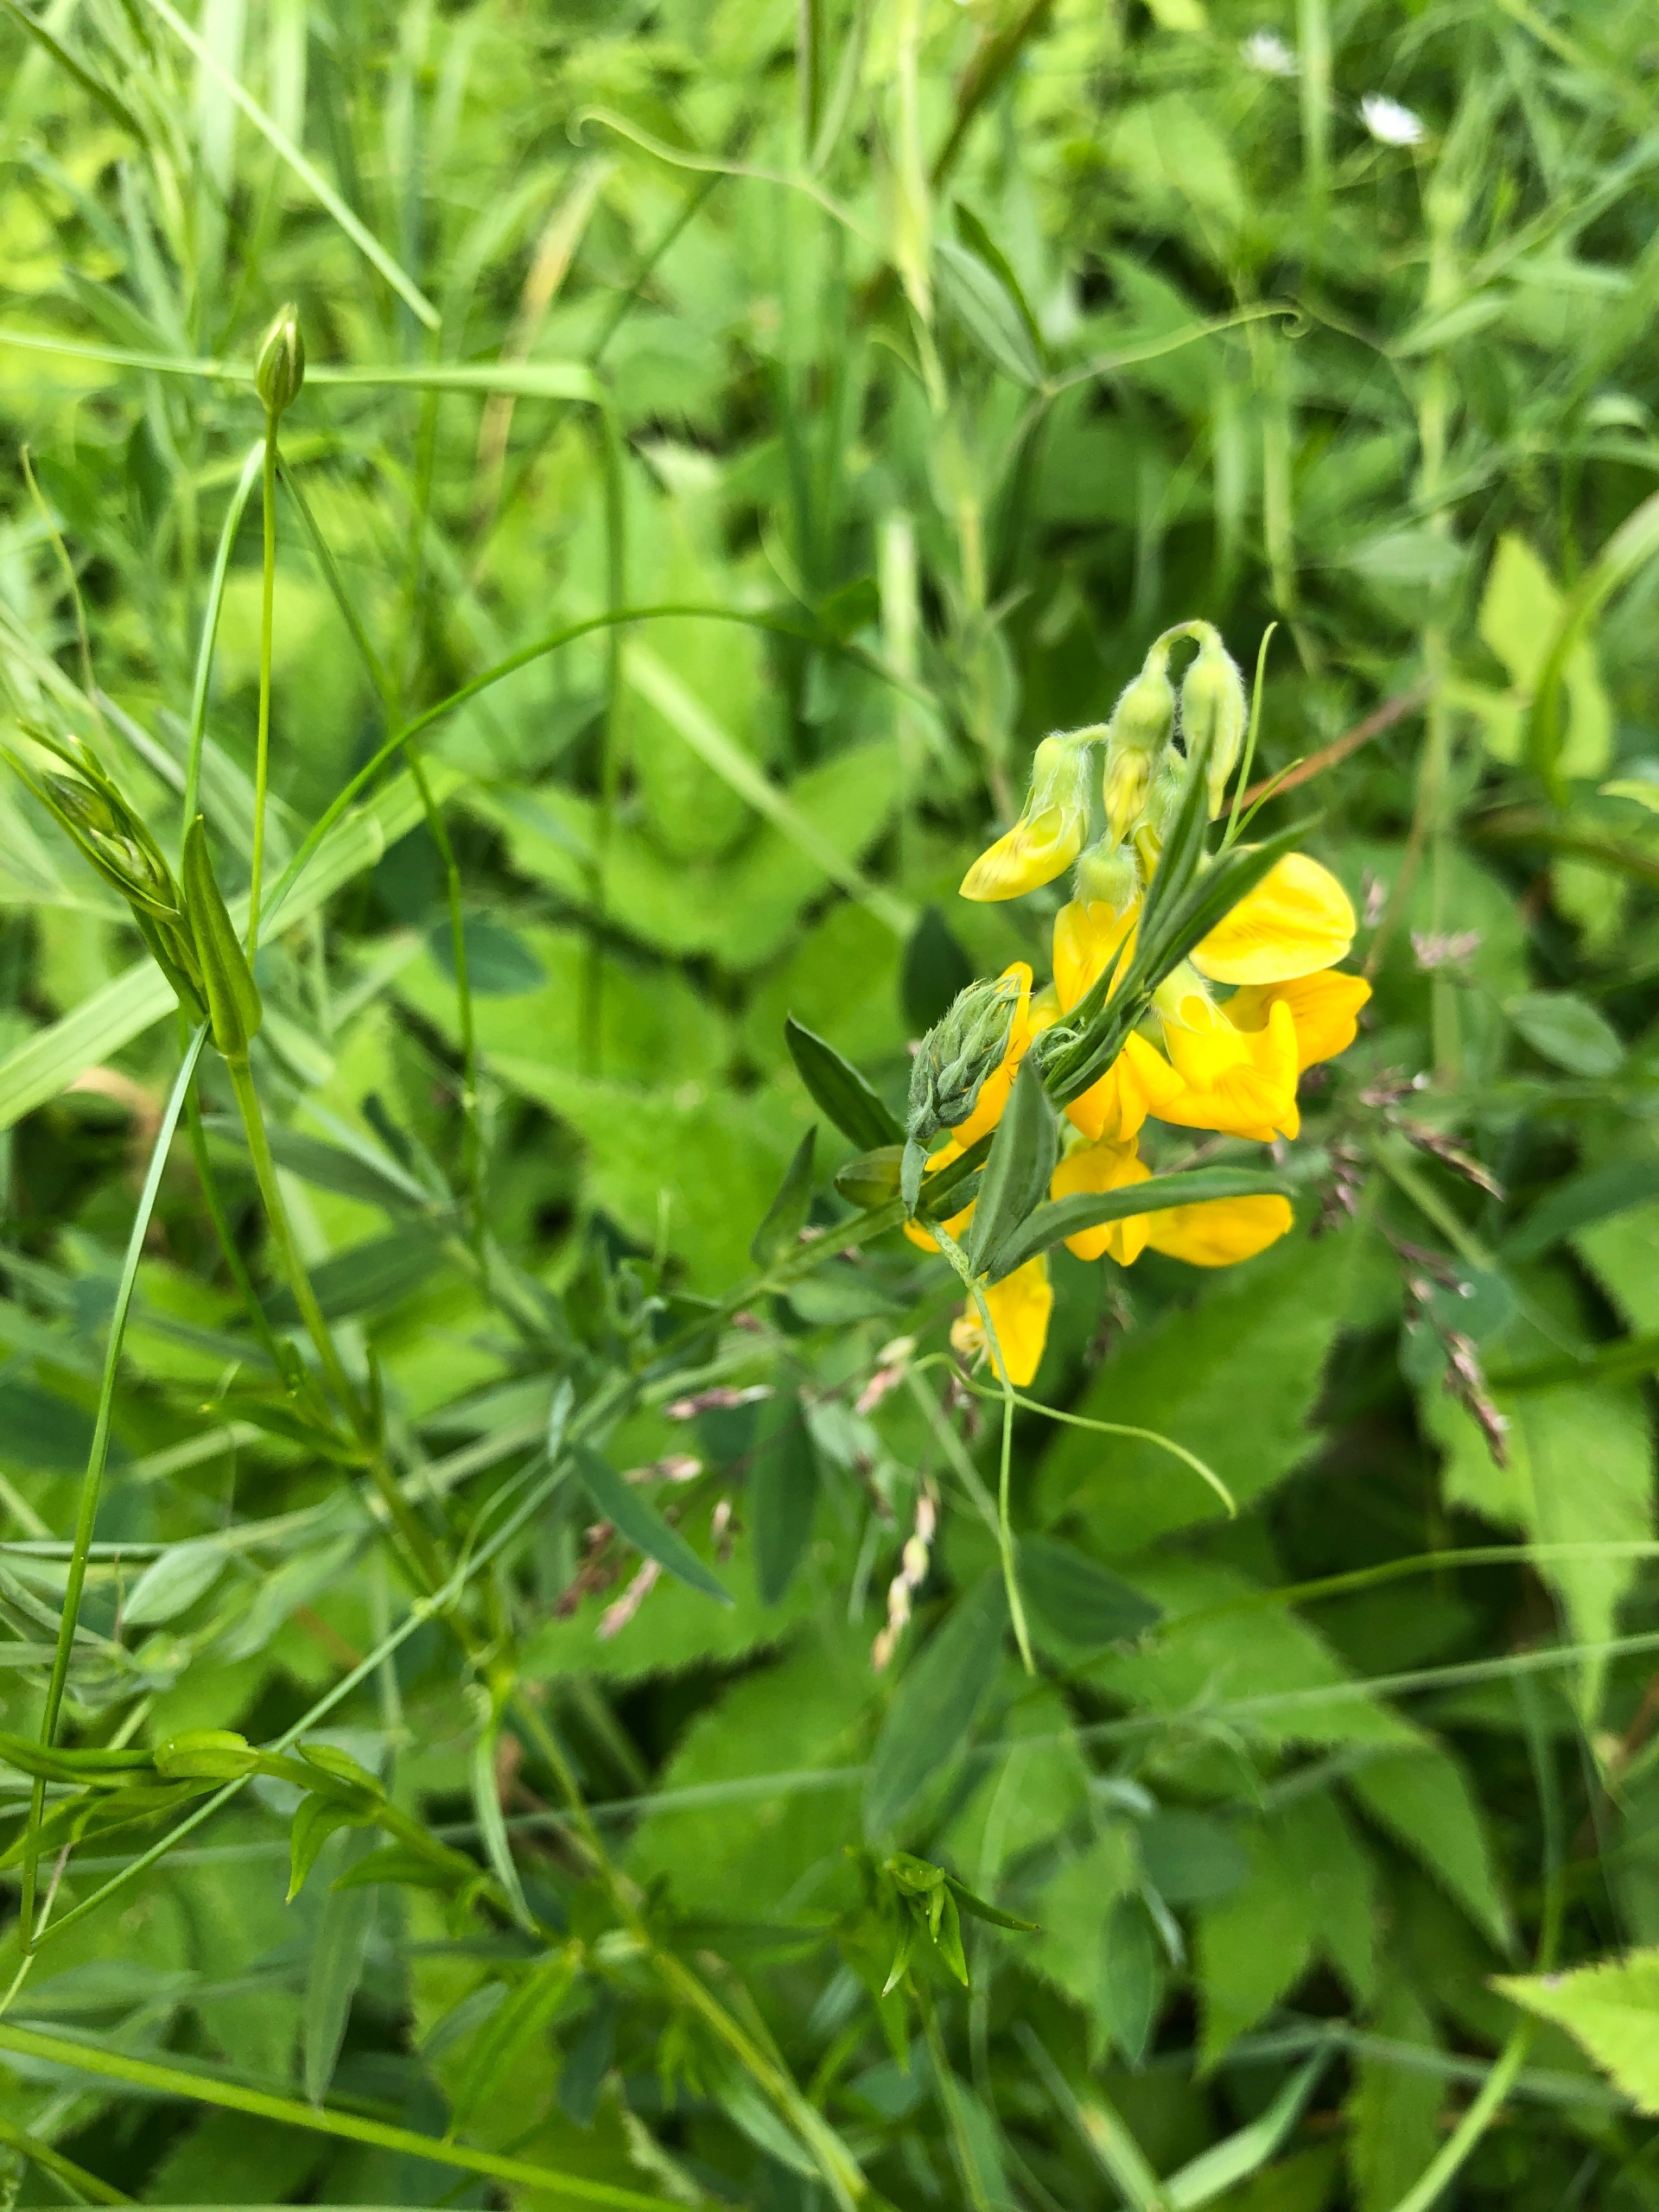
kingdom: Plantae
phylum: Tracheophyta
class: Magnoliopsida
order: Fabales
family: Fabaceae
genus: Lathyrus
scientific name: Lathyrus pratensis
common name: Gul fladbælg
